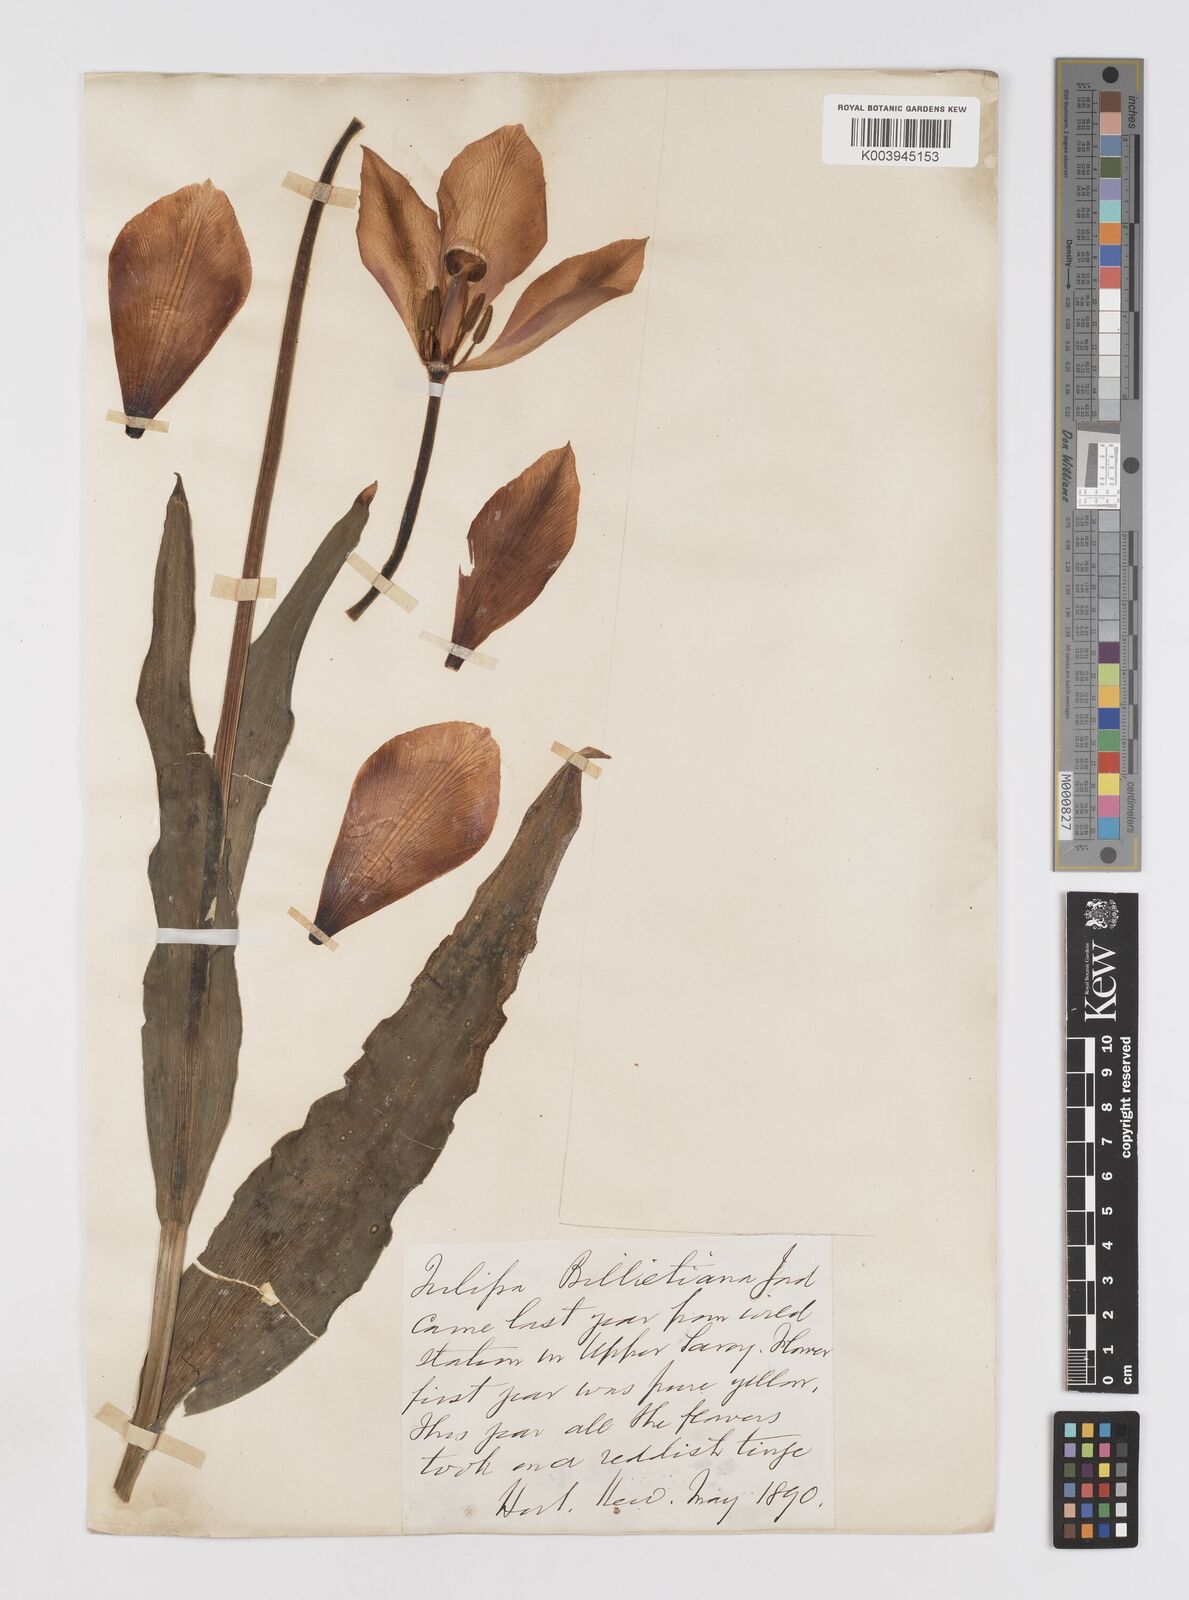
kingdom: Plantae
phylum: Tracheophyta
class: Liliopsida
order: Liliales
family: Liliaceae
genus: Tulipa
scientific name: Tulipa gesneriana
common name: Garden tulip
